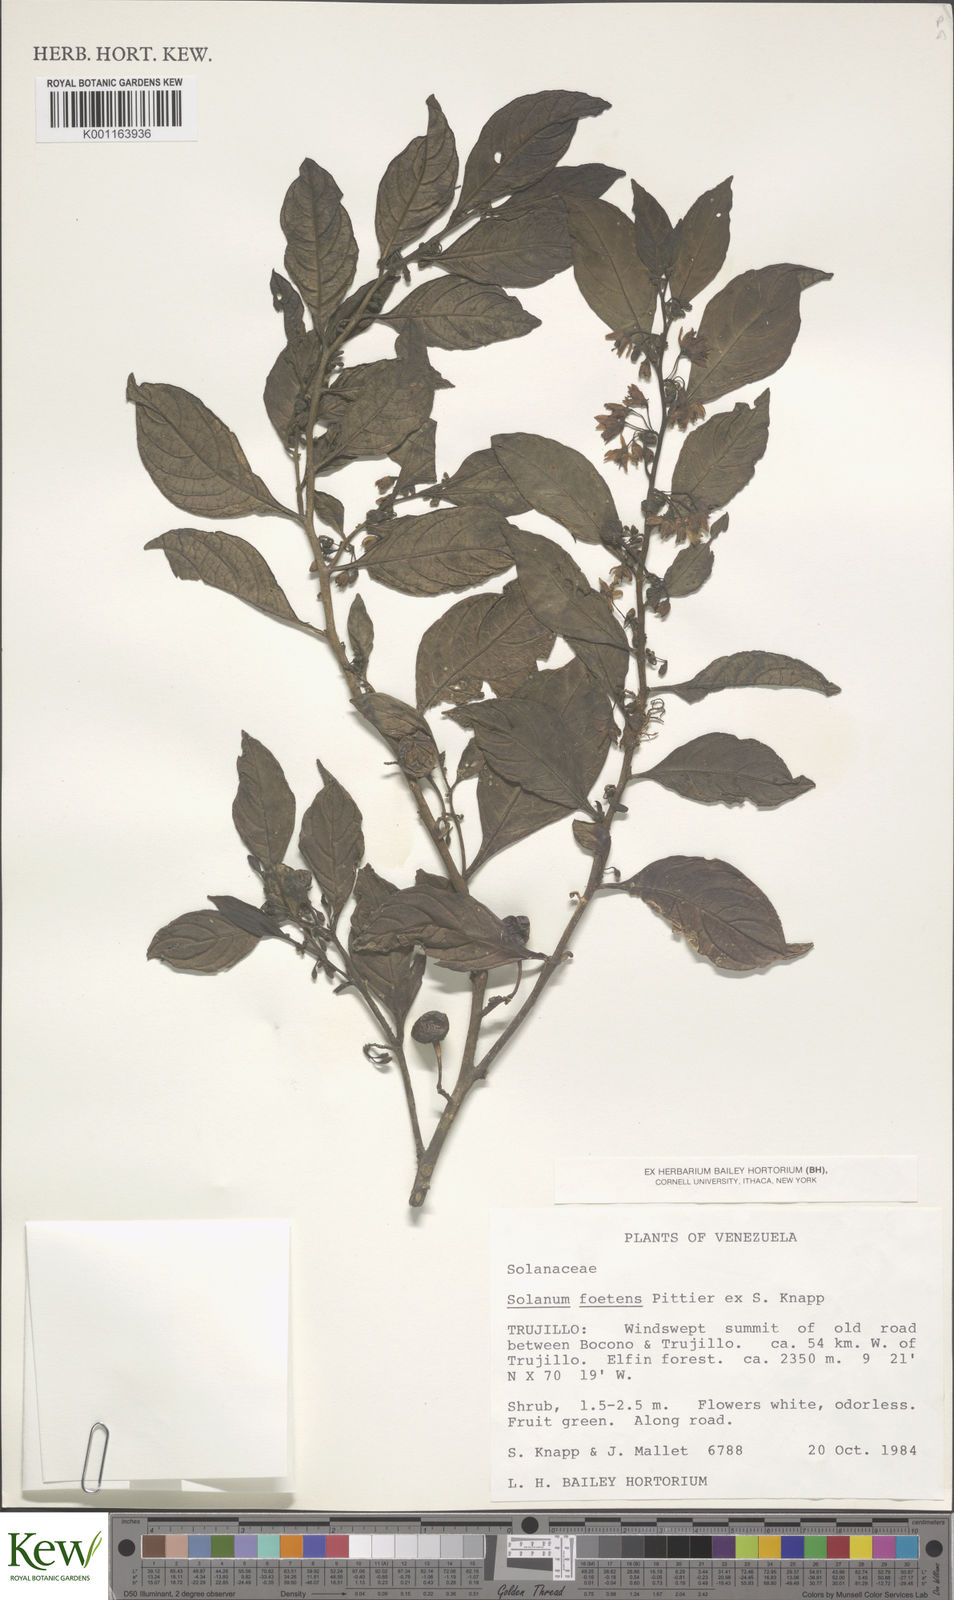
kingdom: Plantae
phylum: Tracheophyta
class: Magnoliopsida
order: Solanales
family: Solanaceae
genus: Solanum
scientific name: Solanum foetens
